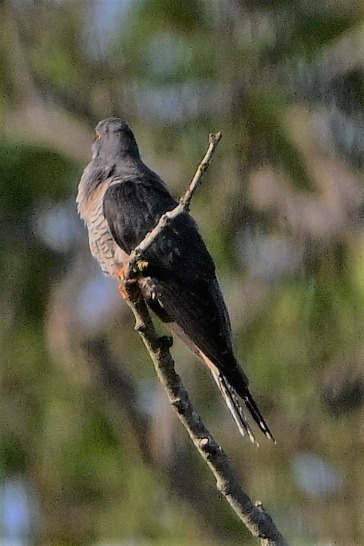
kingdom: Animalia
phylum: Chordata
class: Aves
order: Cuculiformes
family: Cuculidae
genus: Cuculus
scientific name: Cuculus canorus
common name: Gøg
